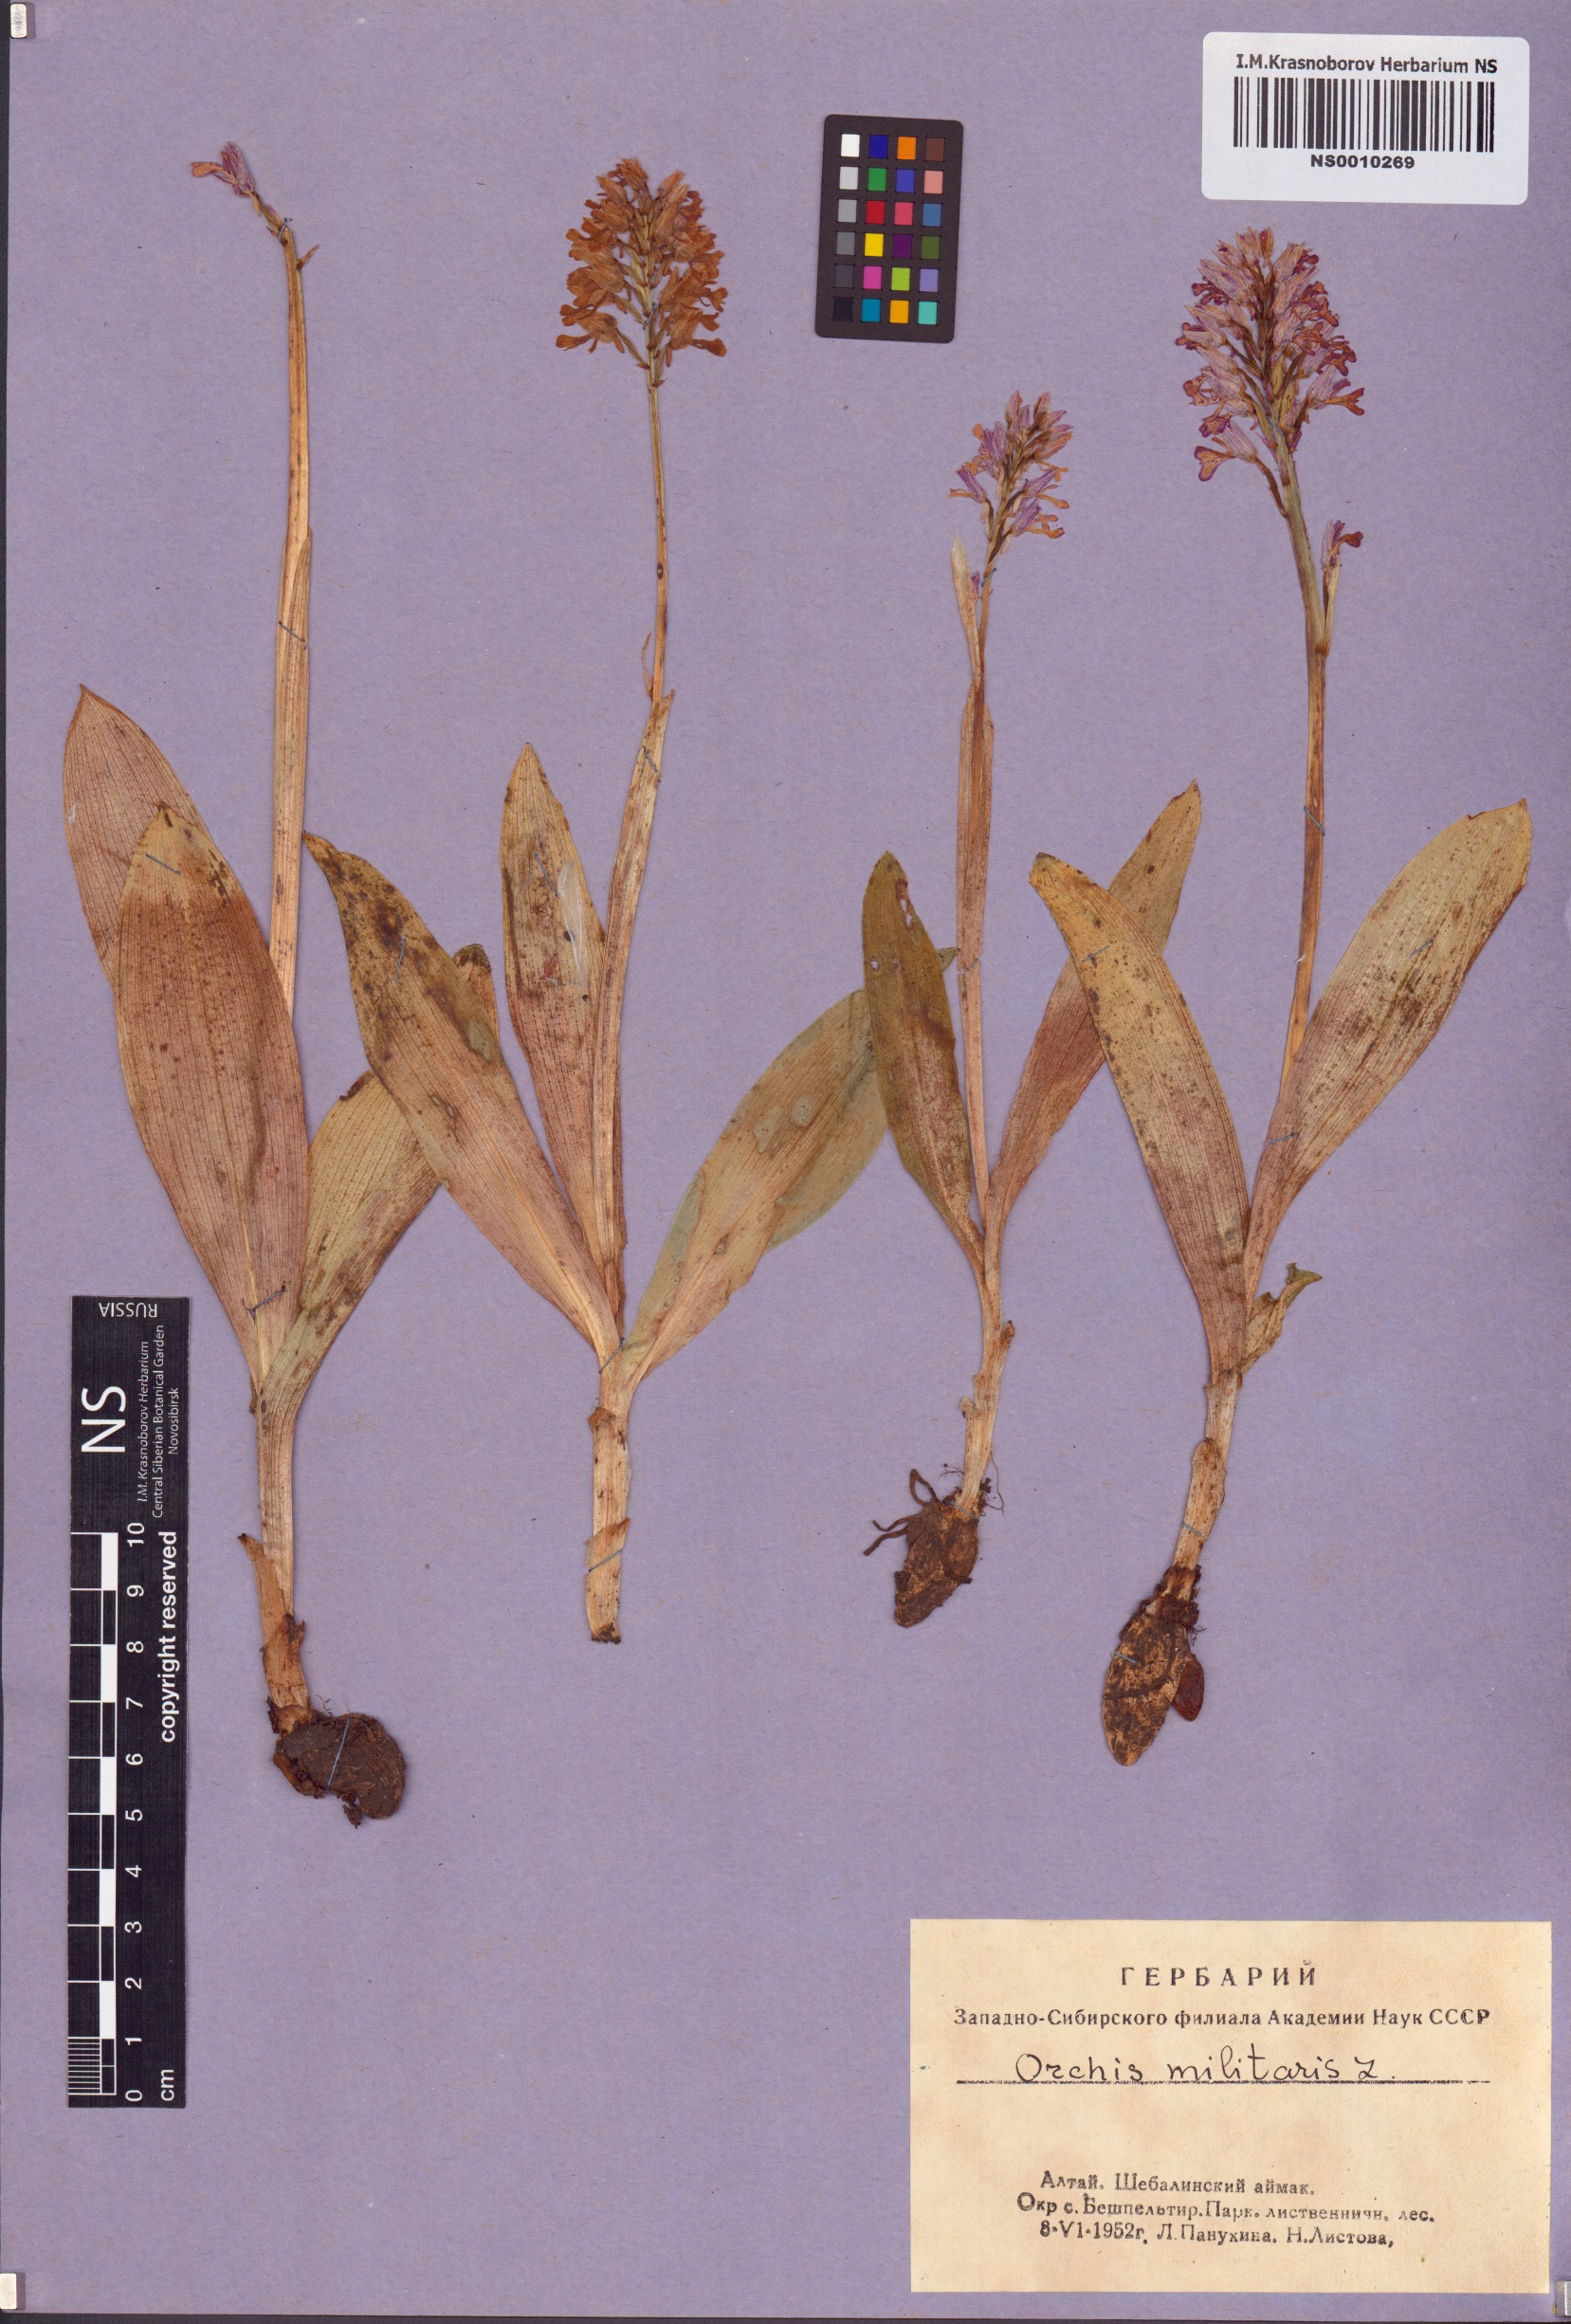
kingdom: Plantae
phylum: Tracheophyta
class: Liliopsida
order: Asparagales
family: Orchidaceae
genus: Orchis
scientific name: Orchis militaris
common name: Military orchid
